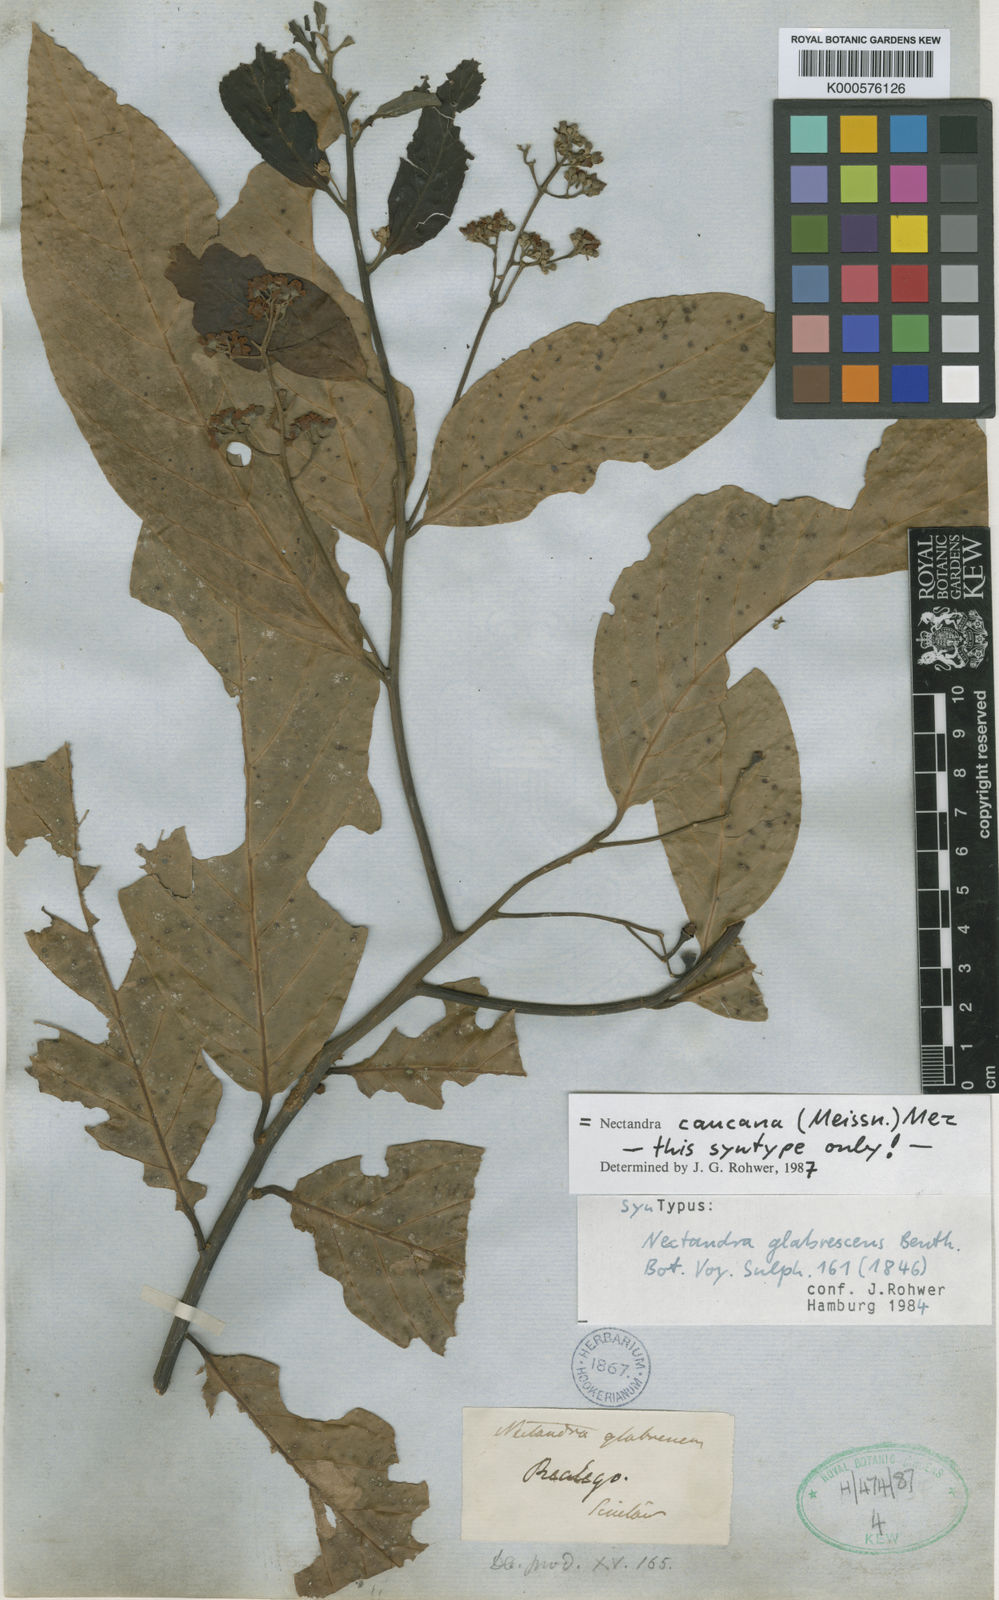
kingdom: Plantae
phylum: Tracheophyta
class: Magnoliopsida
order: Laurales
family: Lauraceae
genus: Nectandra
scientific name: Nectandra lineata
